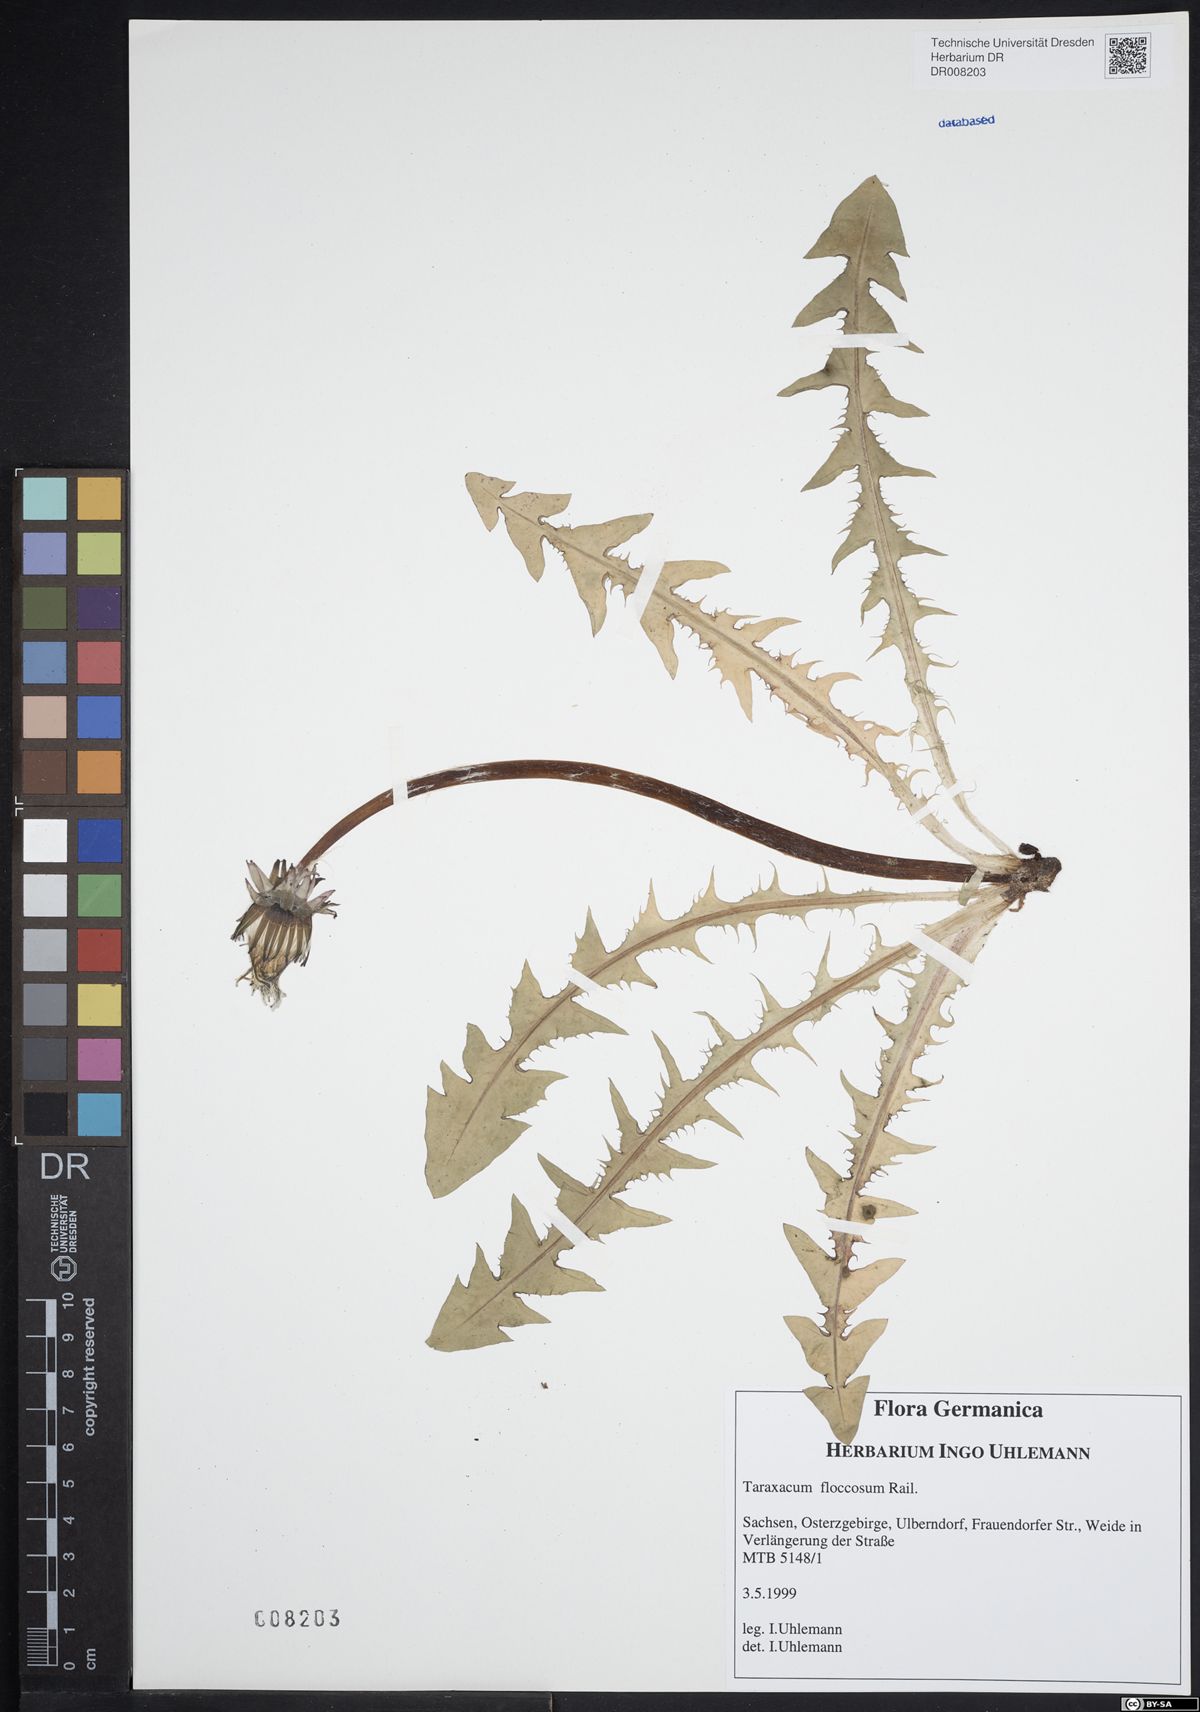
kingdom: Plantae
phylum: Tracheophyta
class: Magnoliopsida
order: Asterales
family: Asteraceae
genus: Taraxacum
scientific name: Taraxacum floccosum
